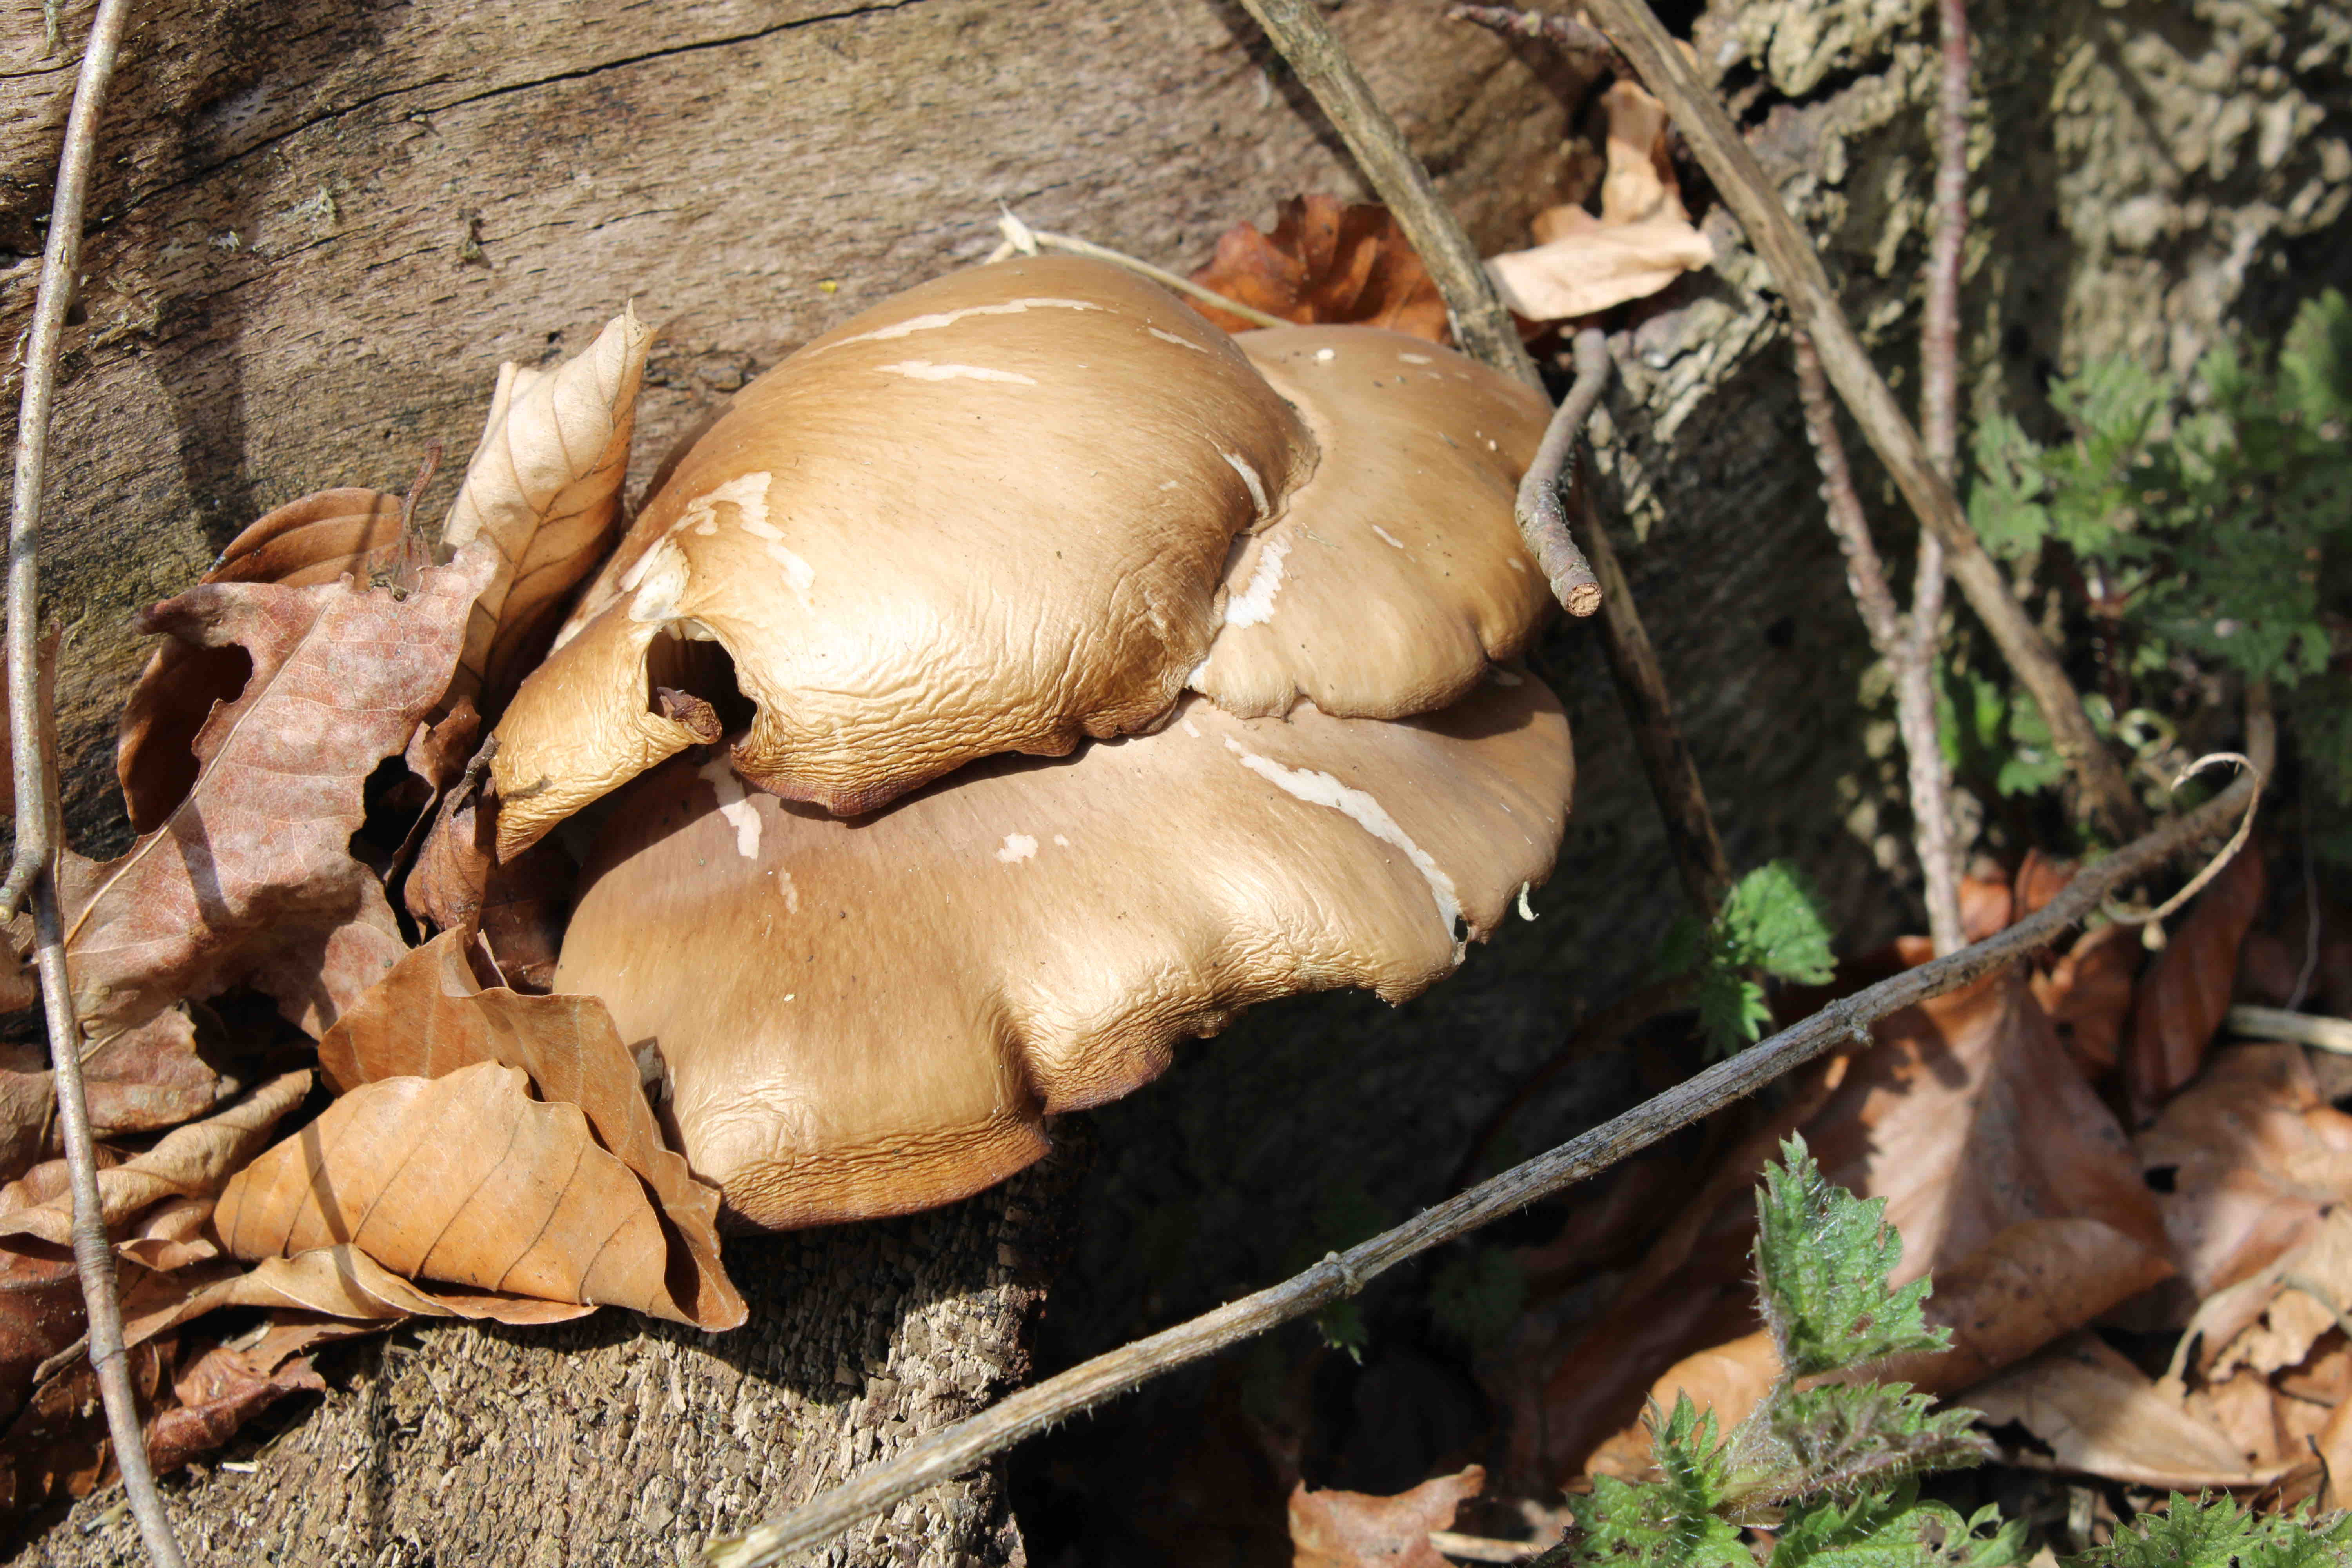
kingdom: Fungi
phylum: Basidiomycota
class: Agaricomycetes
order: Agaricales
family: Pleurotaceae
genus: Pleurotus
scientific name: Pleurotus ostreatus
